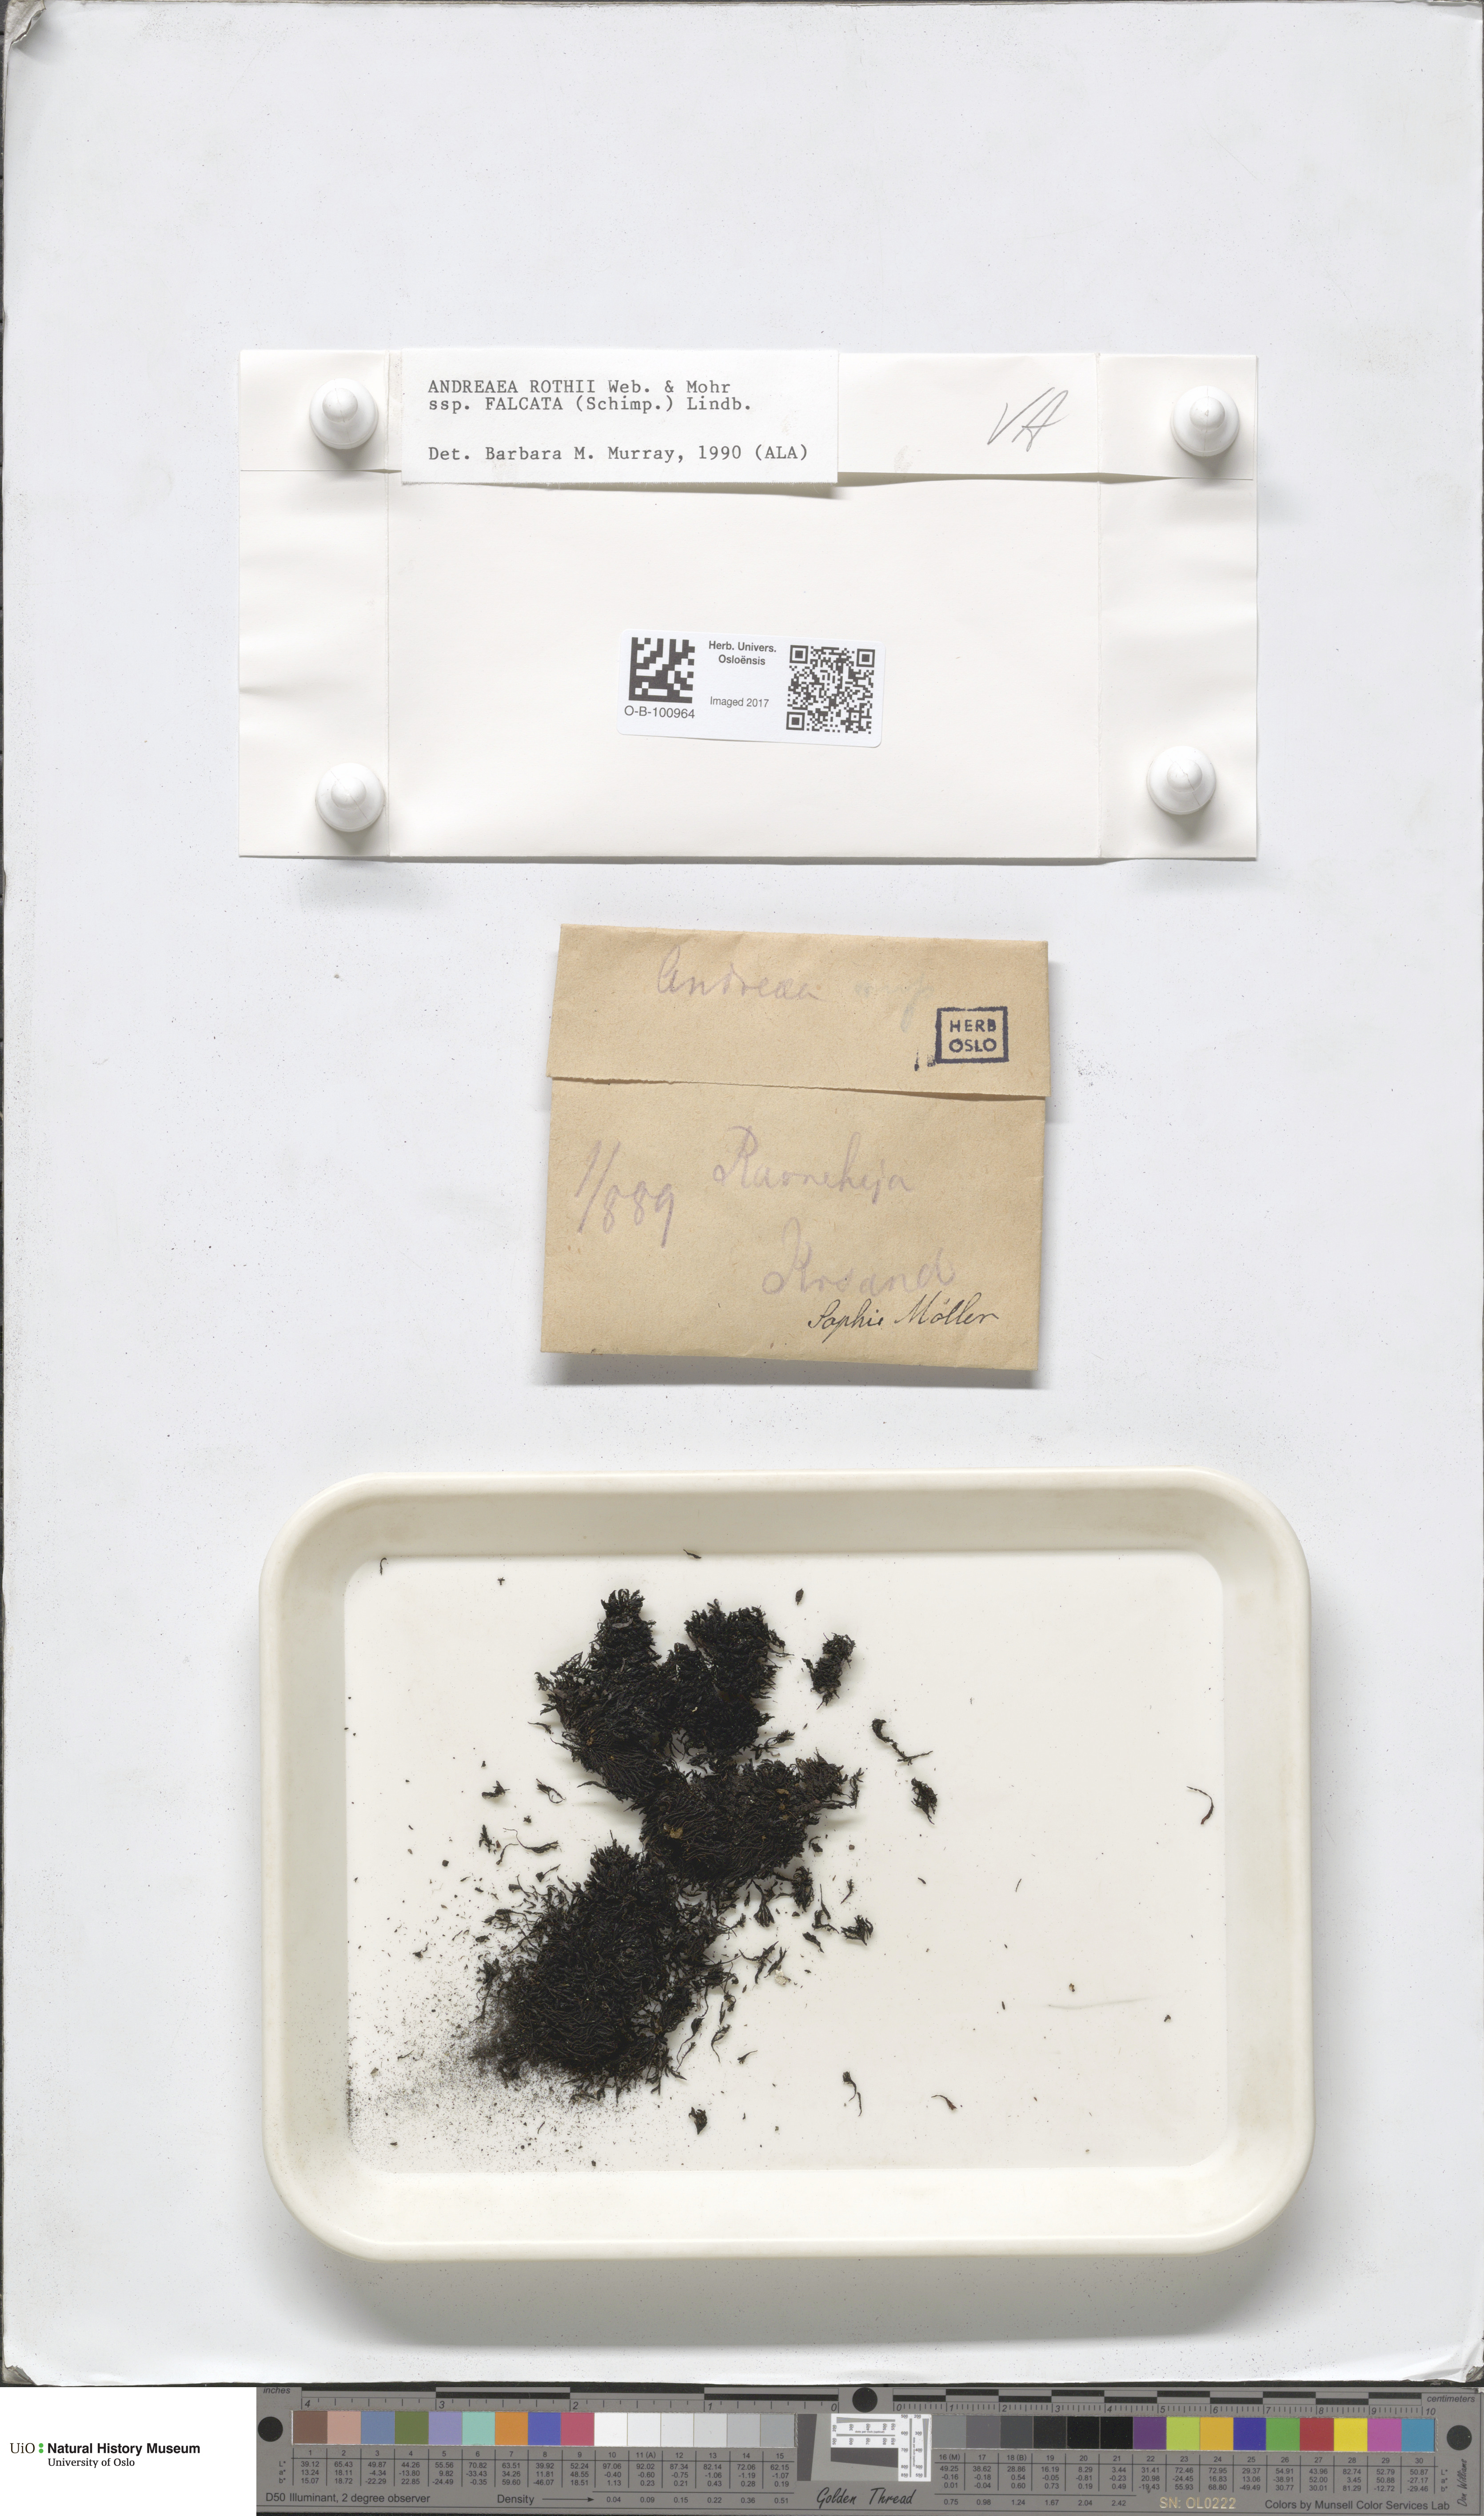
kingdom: Plantae
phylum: Bryophyta
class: Andreaeopsida
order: Andreaeales
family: Andreaeaceae
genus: Andreaea
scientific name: Andreaea rothii
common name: Dusky rock moss
